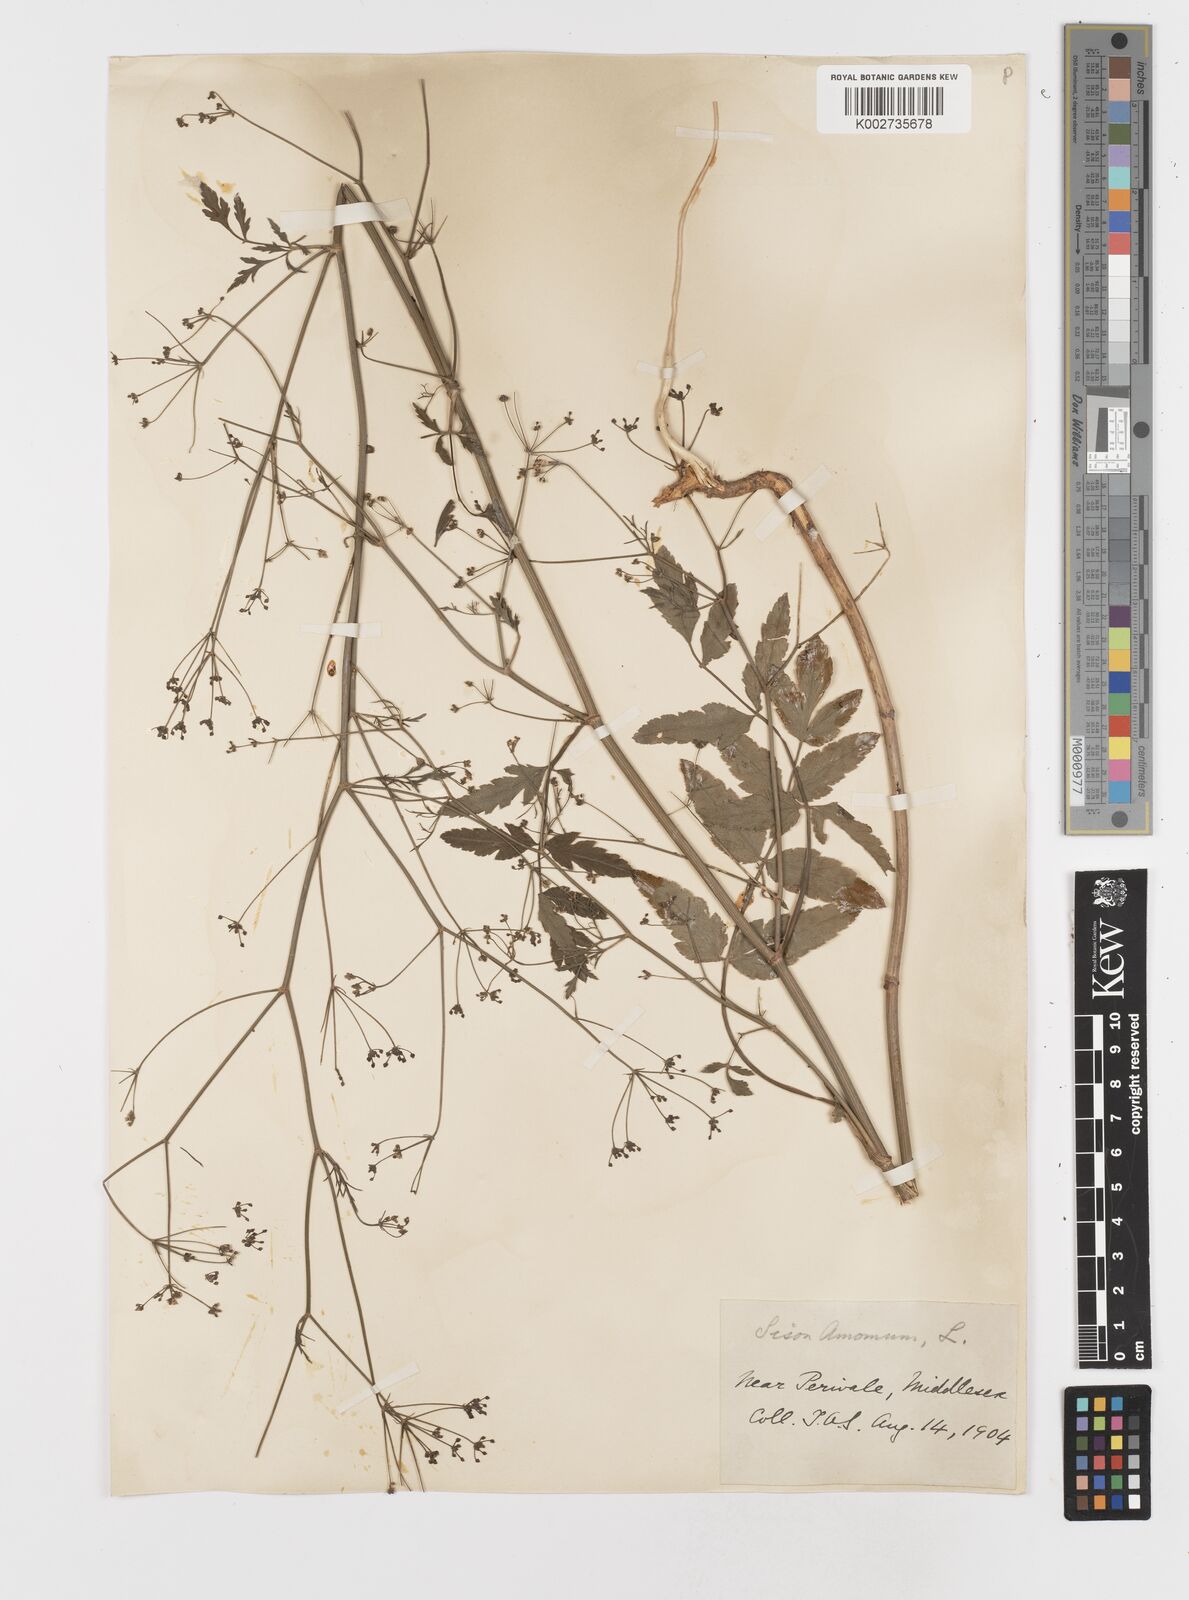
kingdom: Plantae
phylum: Tracheophyta
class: Magnoliopsida
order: Apiales
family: Apiaceae
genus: Sison
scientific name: Sison amomum
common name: Stone-parsley
